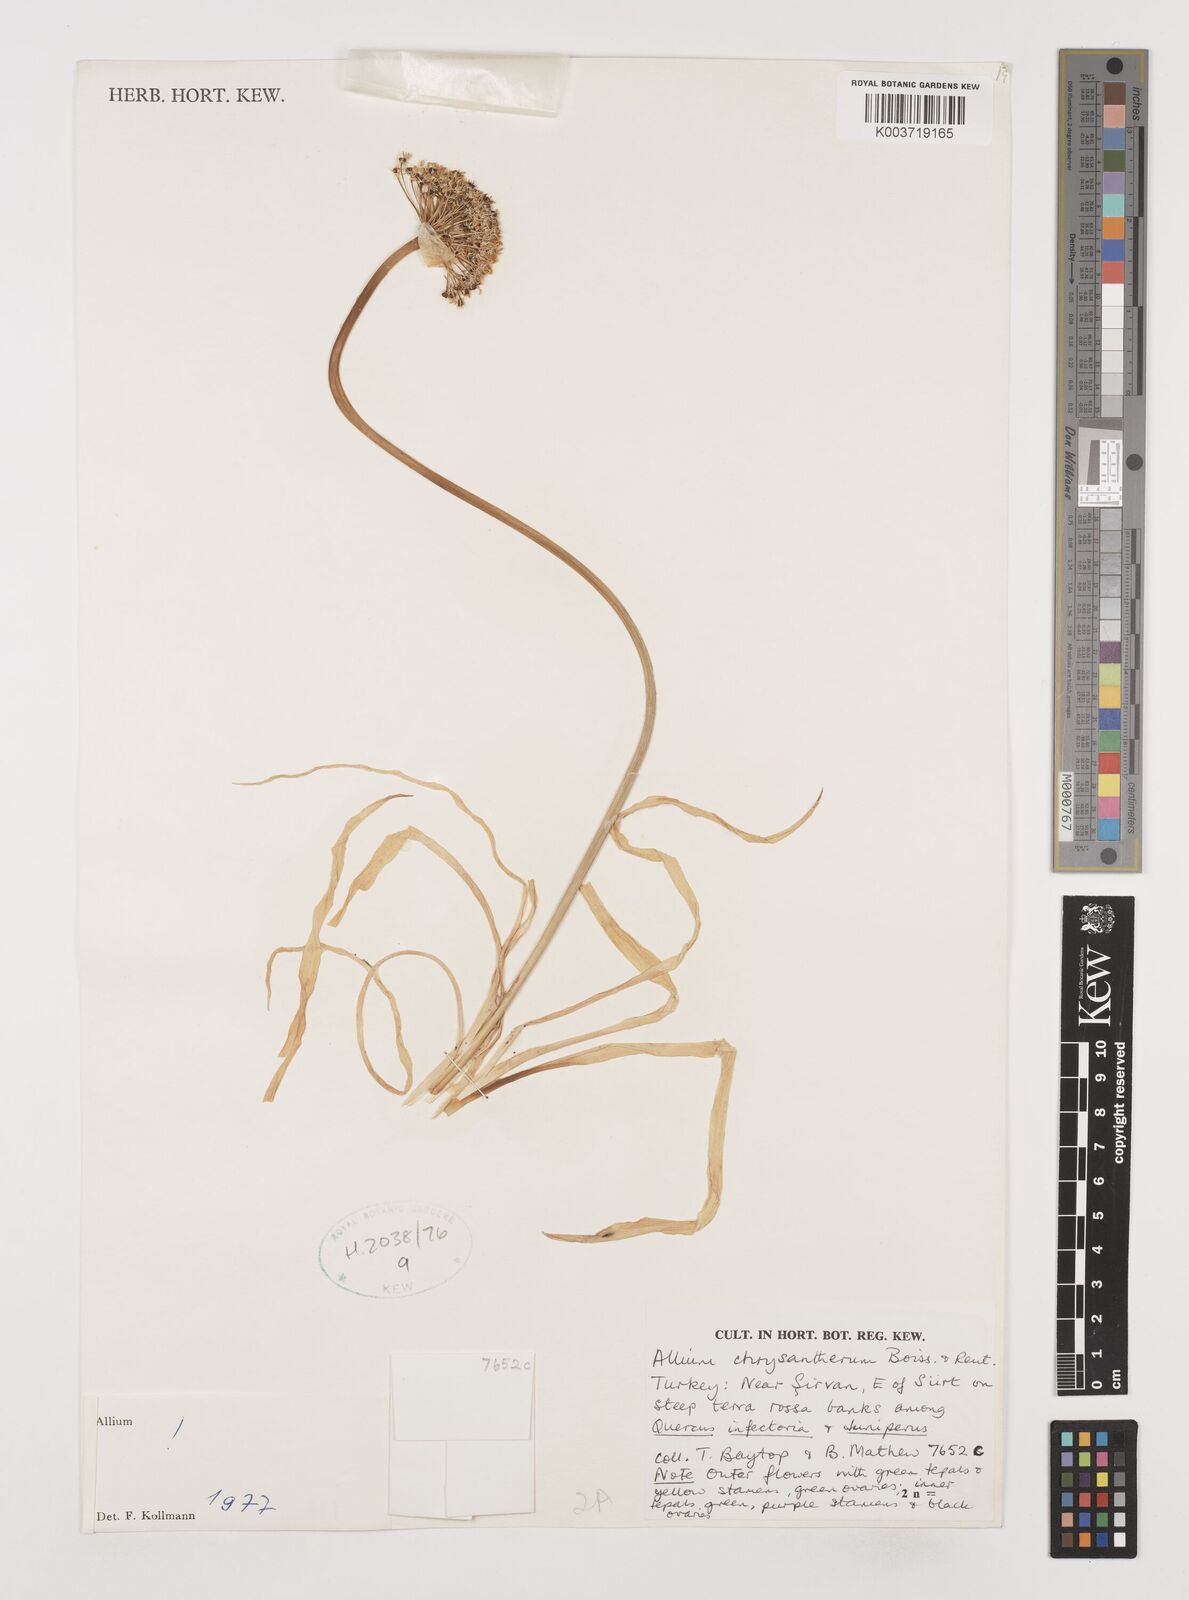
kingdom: Plantae
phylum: Tracheophyta
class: Liliopsida
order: Asparagales
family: Amaryllidaceae
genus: Allium
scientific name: Allium chrysantherum
